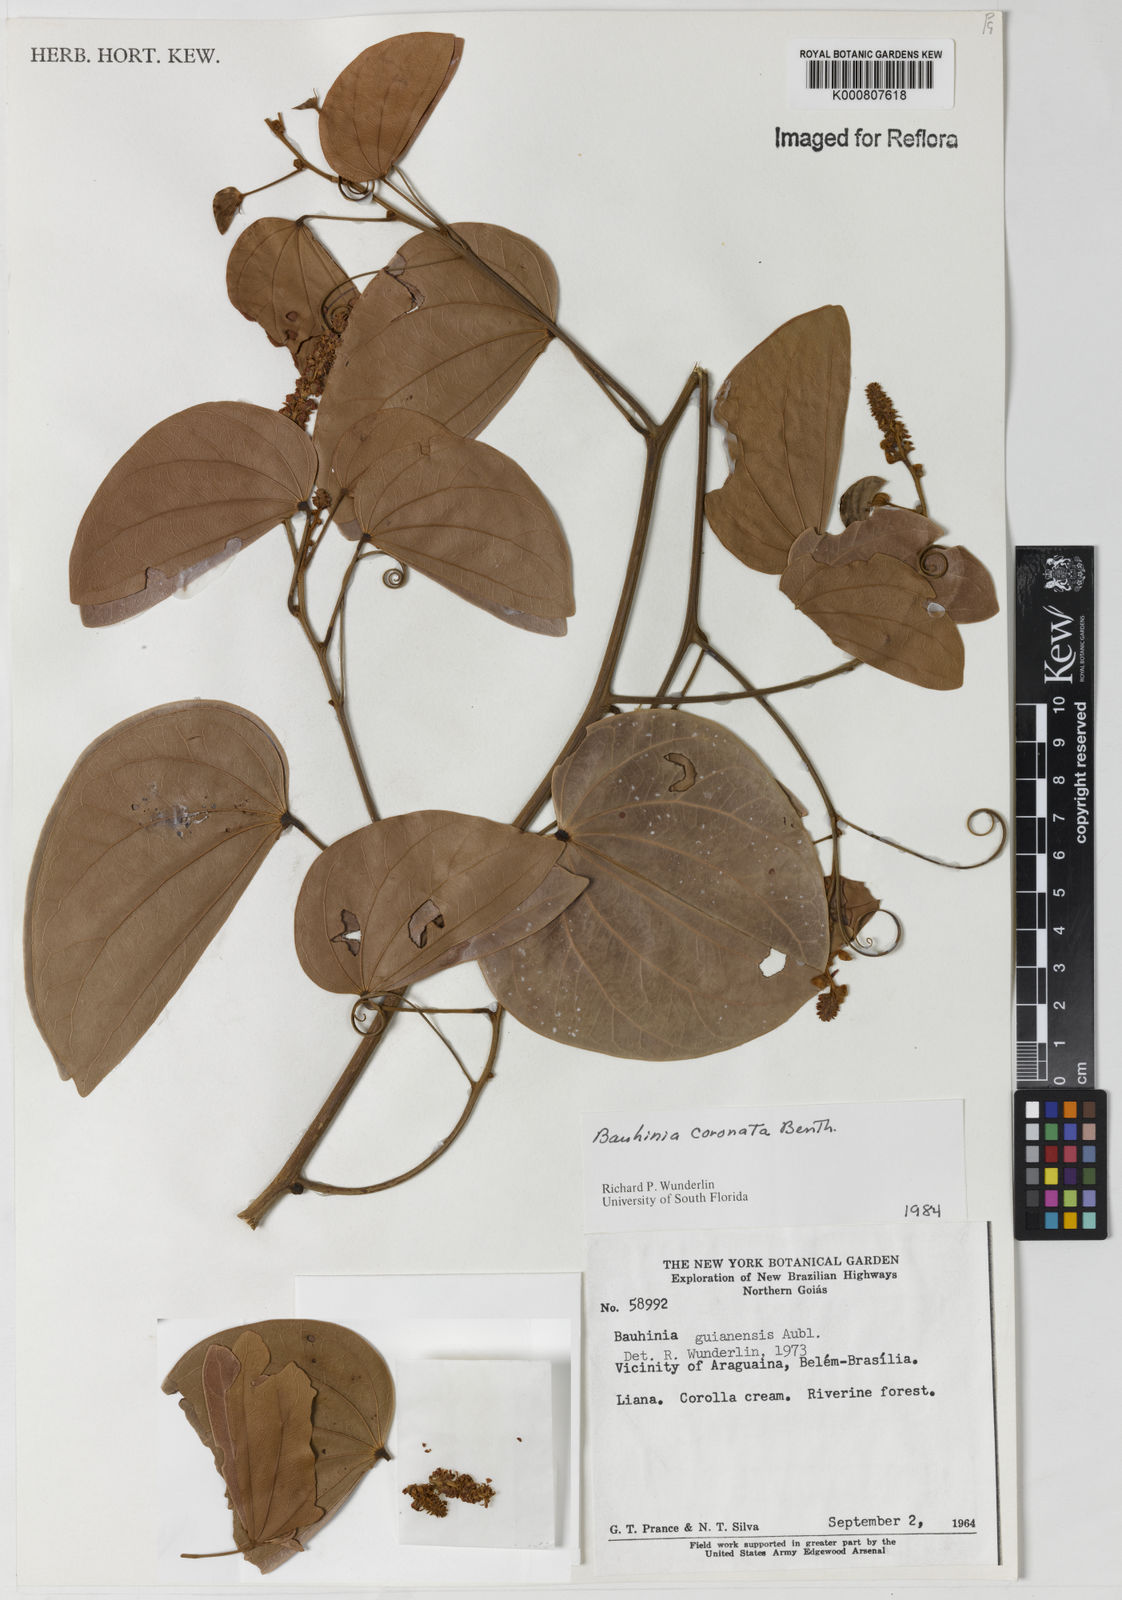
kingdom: Plantae
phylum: Tracheophyta
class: Magnoliopsida
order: Fabales
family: Fabaceae
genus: Schnella
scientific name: Schnella outimouta
